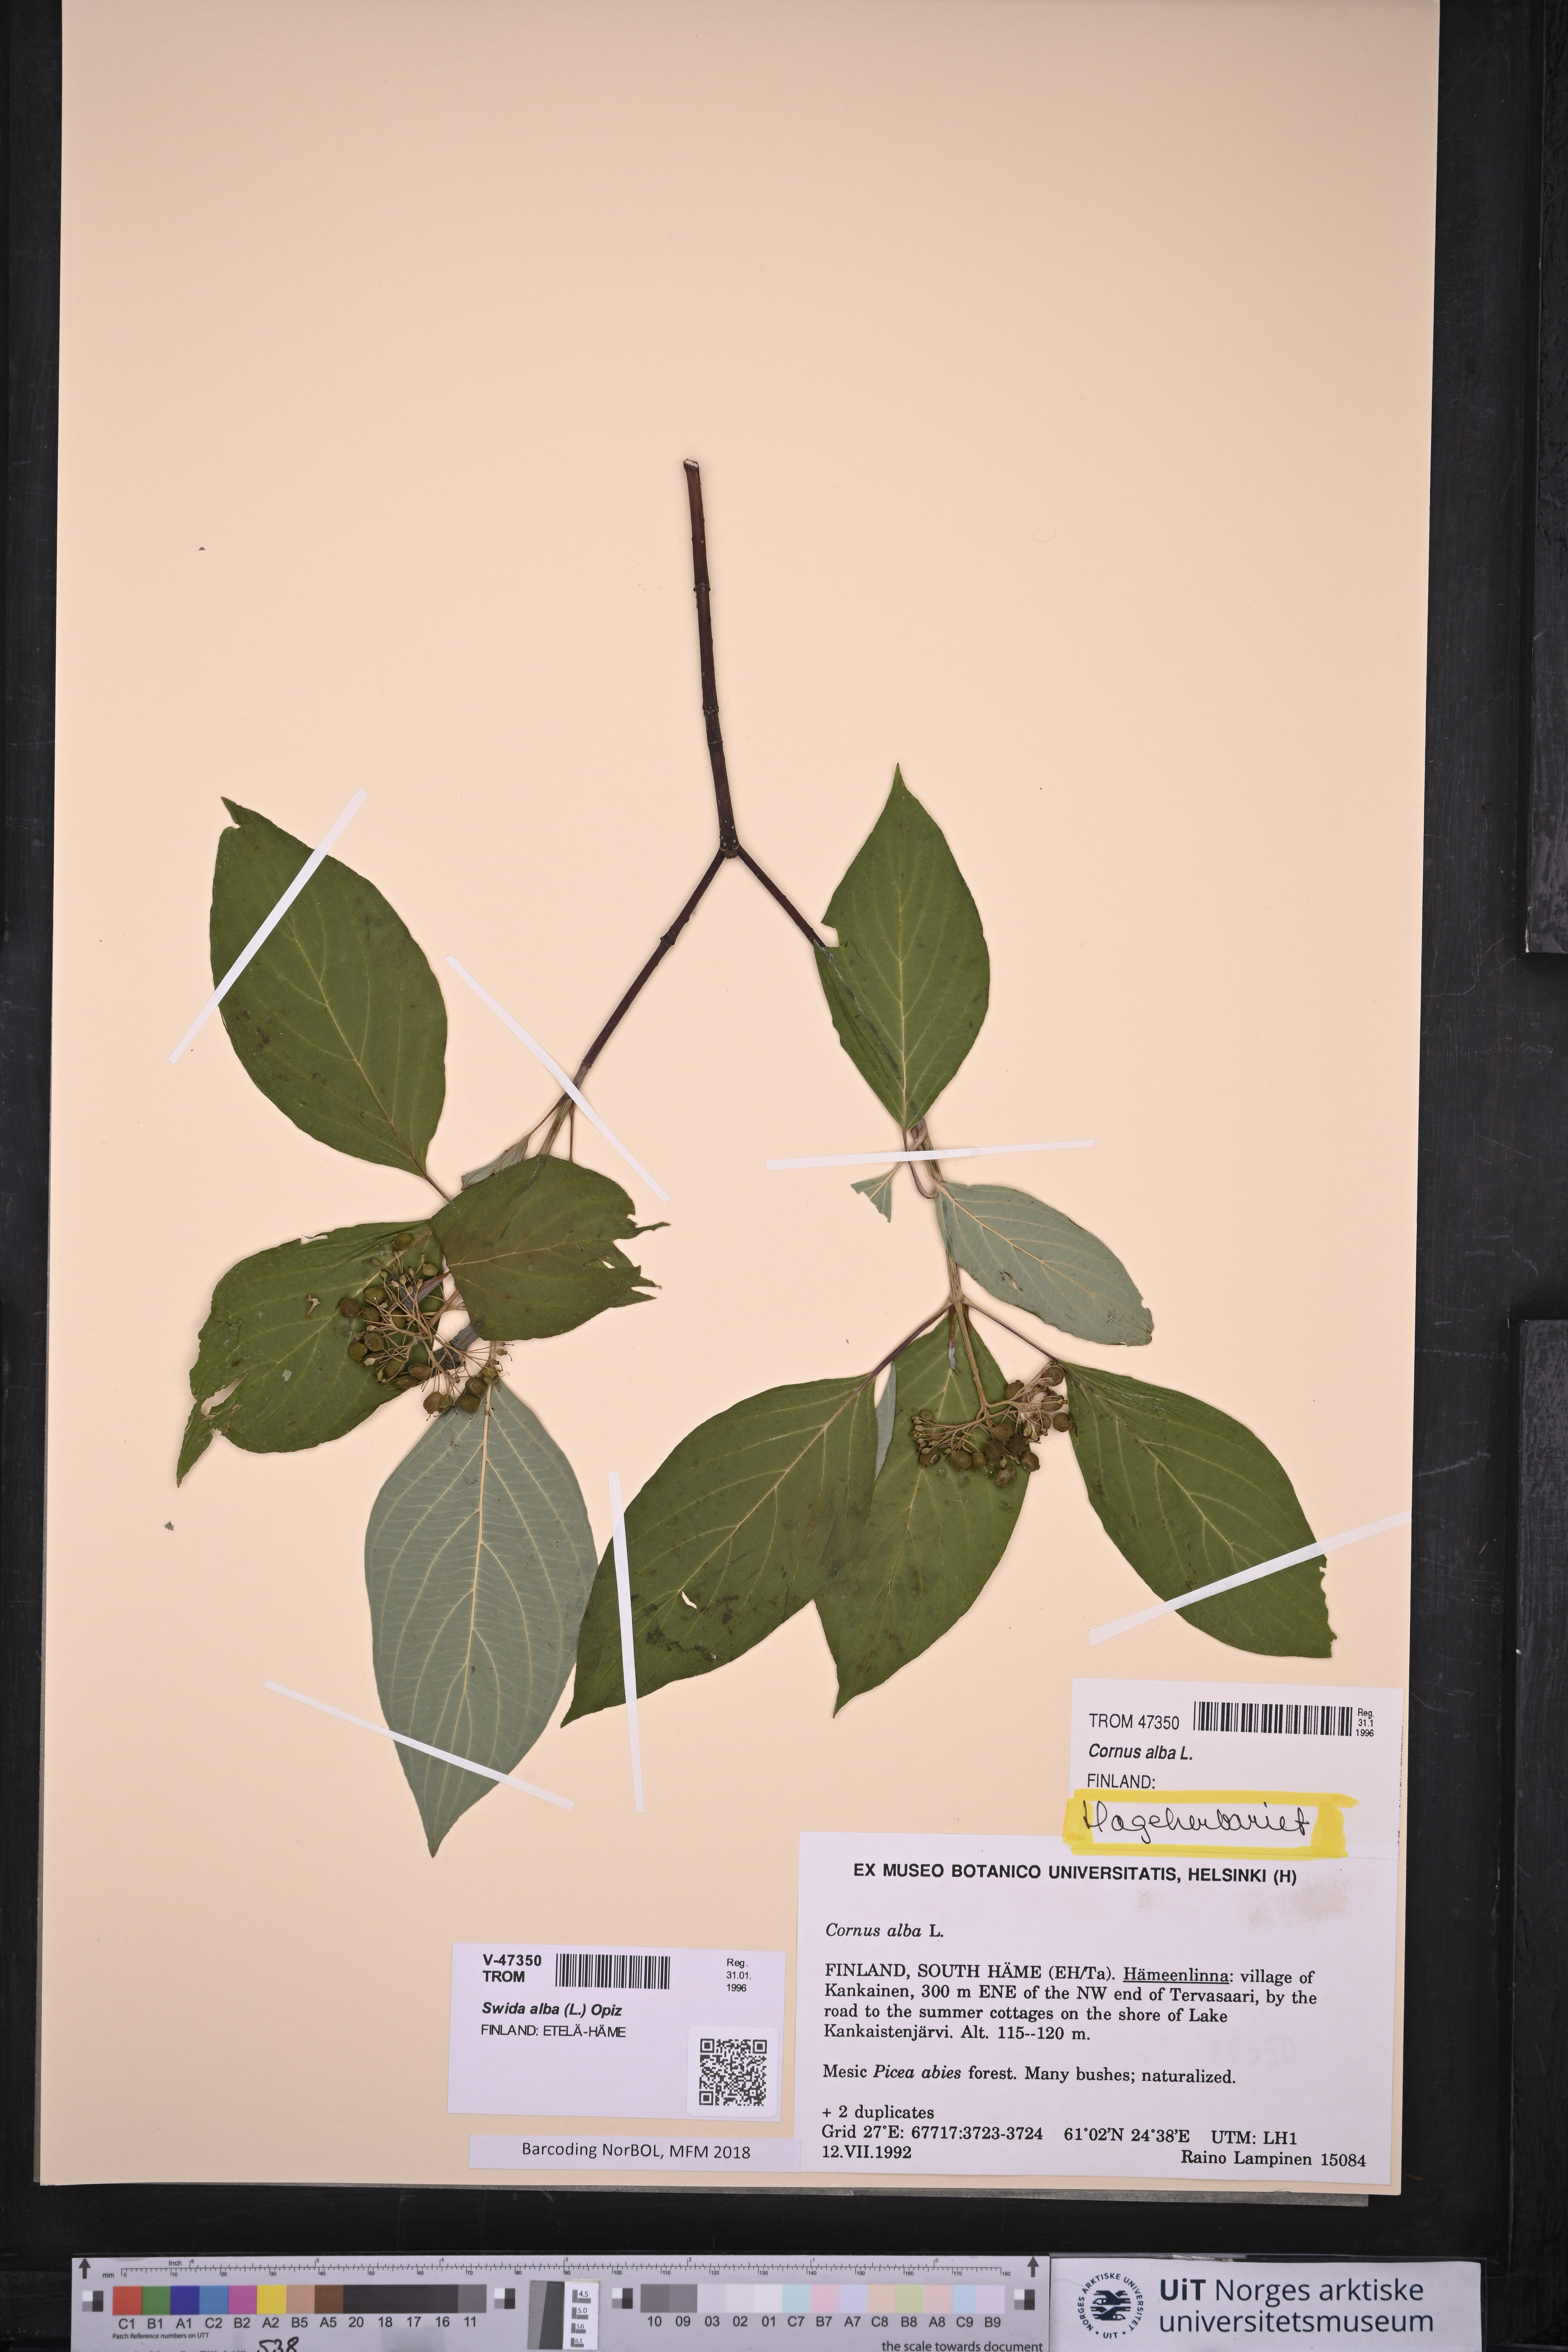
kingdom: Plantae
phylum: Tracheophyta
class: Magnoliopsida
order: Cornales
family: Cornaceae
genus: Cornus
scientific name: Cornus alba
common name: White dogwood
